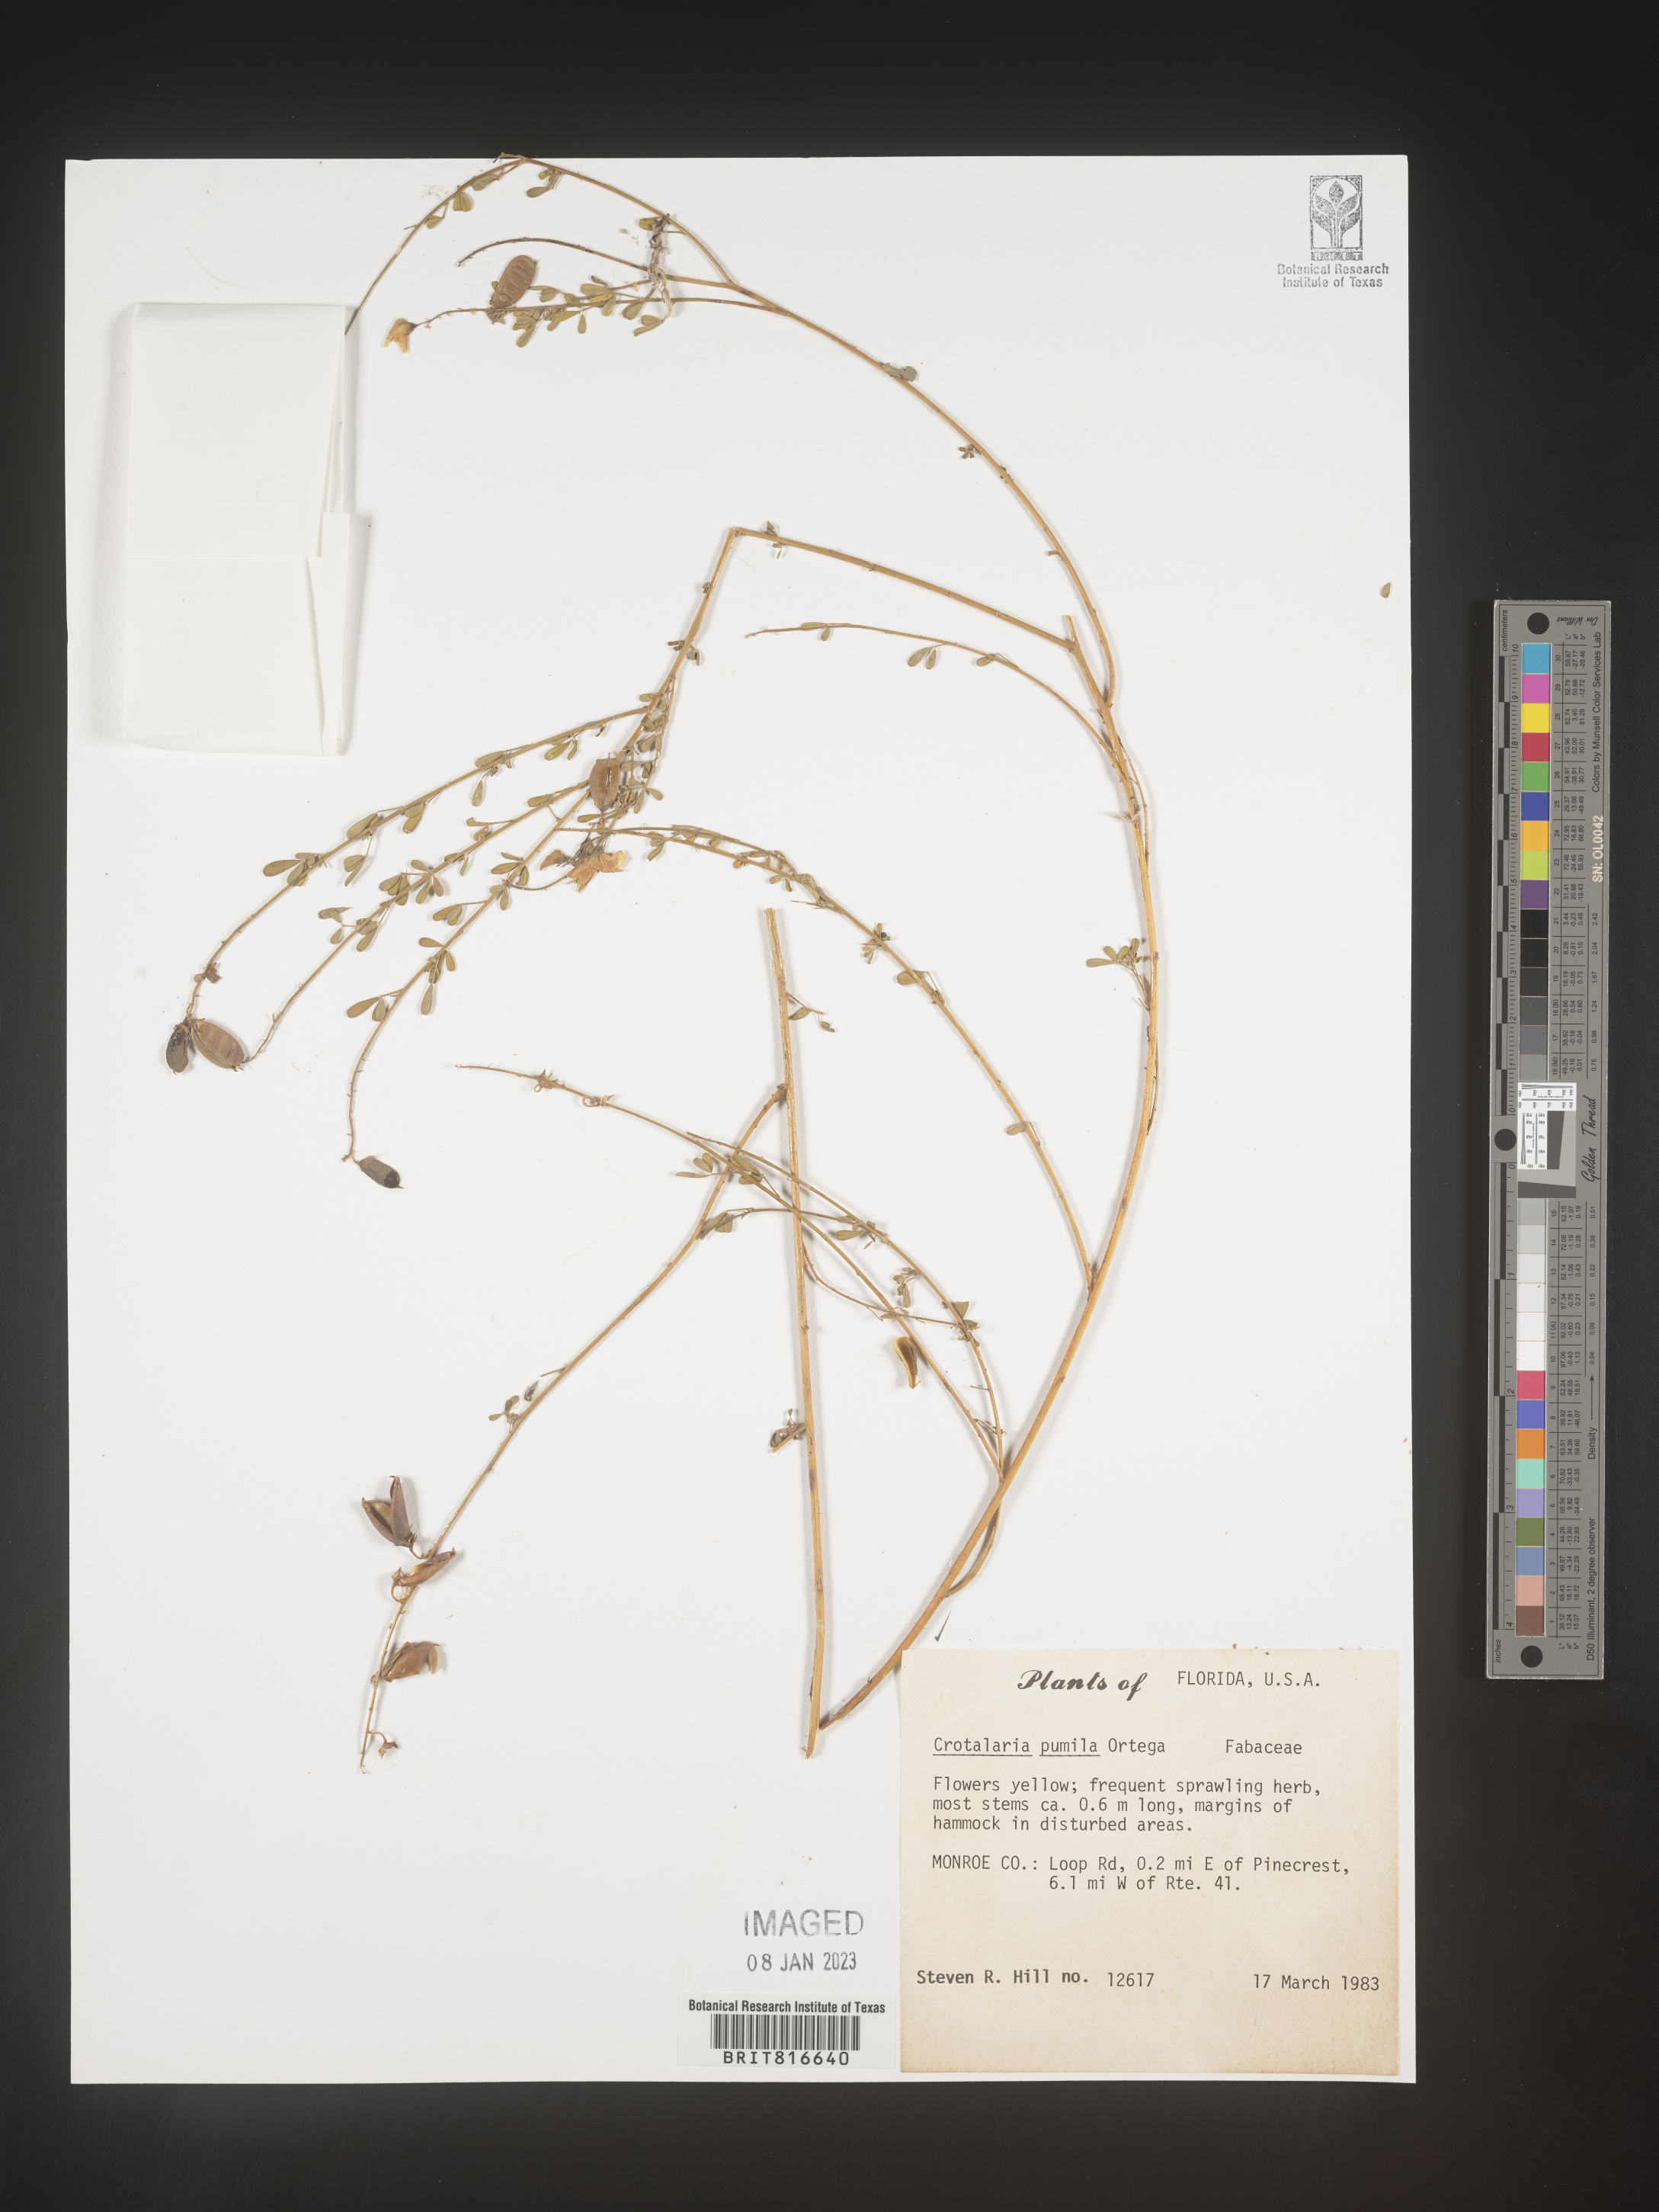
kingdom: Plantae
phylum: Tracheophyta
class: Magnoliopsida
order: Fabales
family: Fabaceae
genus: Crotalaria
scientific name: Crotalaria pumila
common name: Low rattlebox
